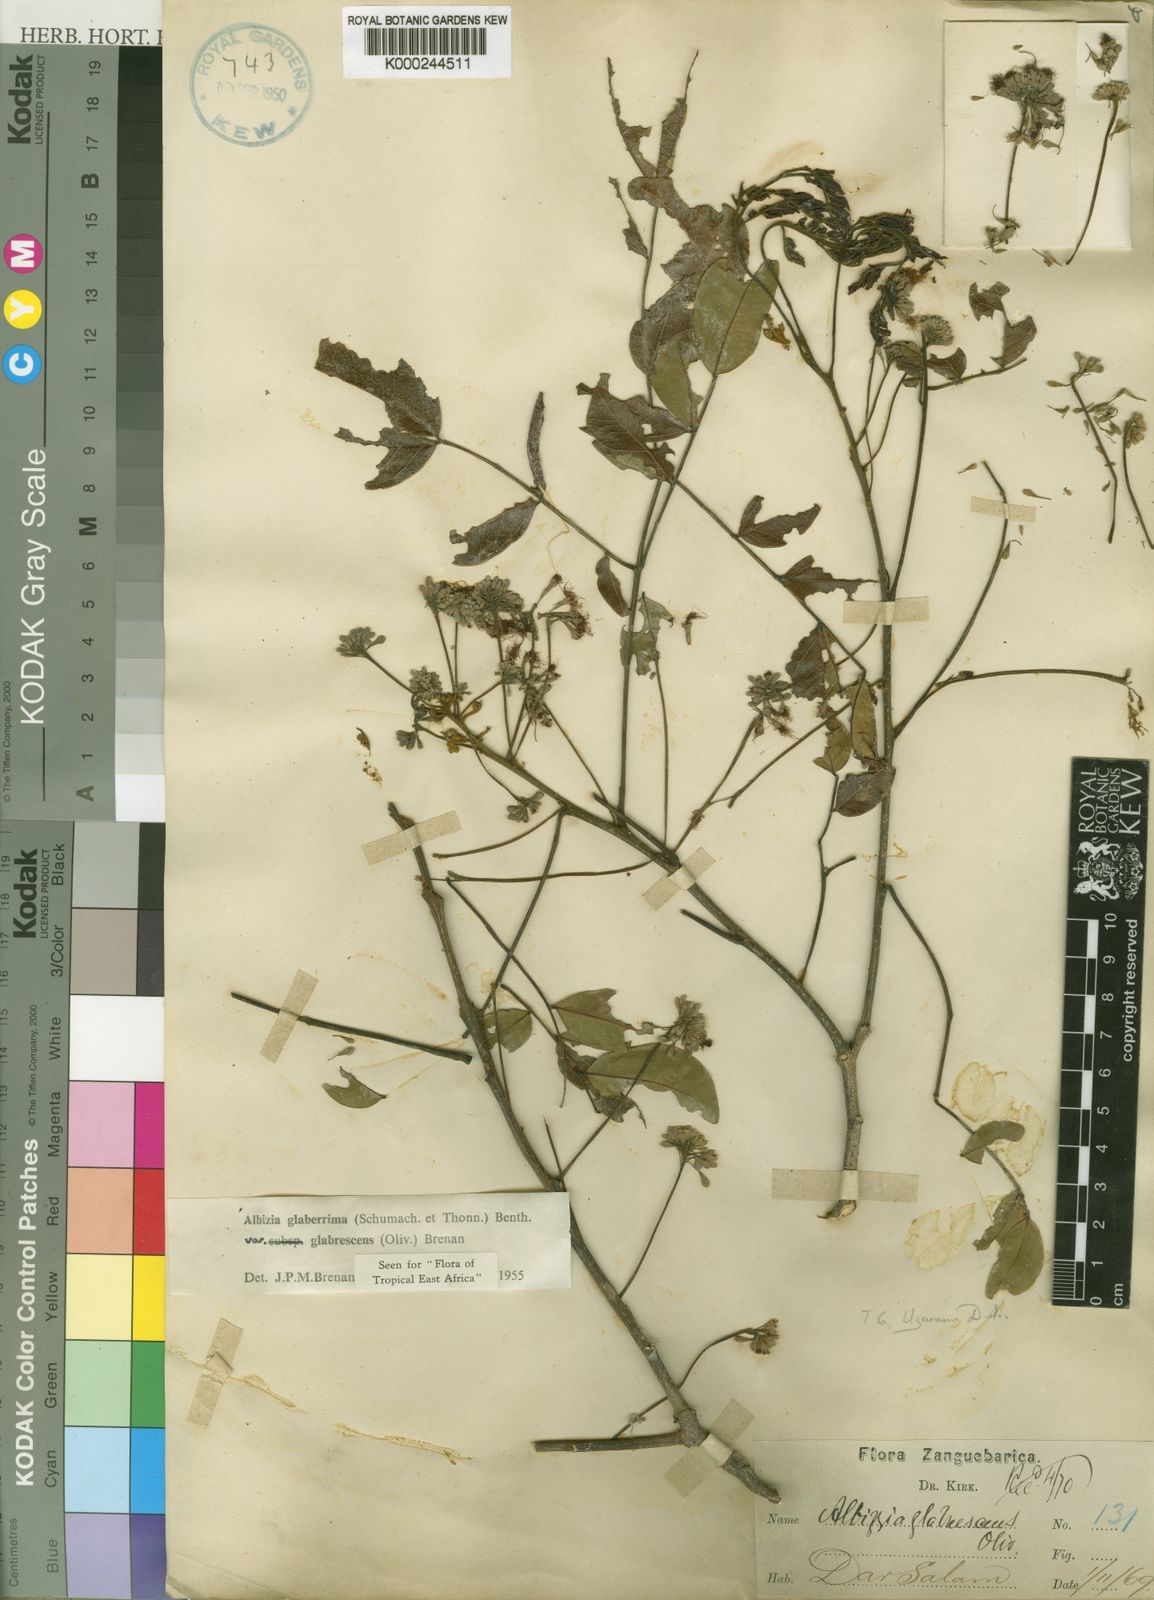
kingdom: Plantae
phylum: Tracheophyta
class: Magnoliopsida
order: Fabales
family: Fabaceae
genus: Albizia
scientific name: Albizia glaberrima
